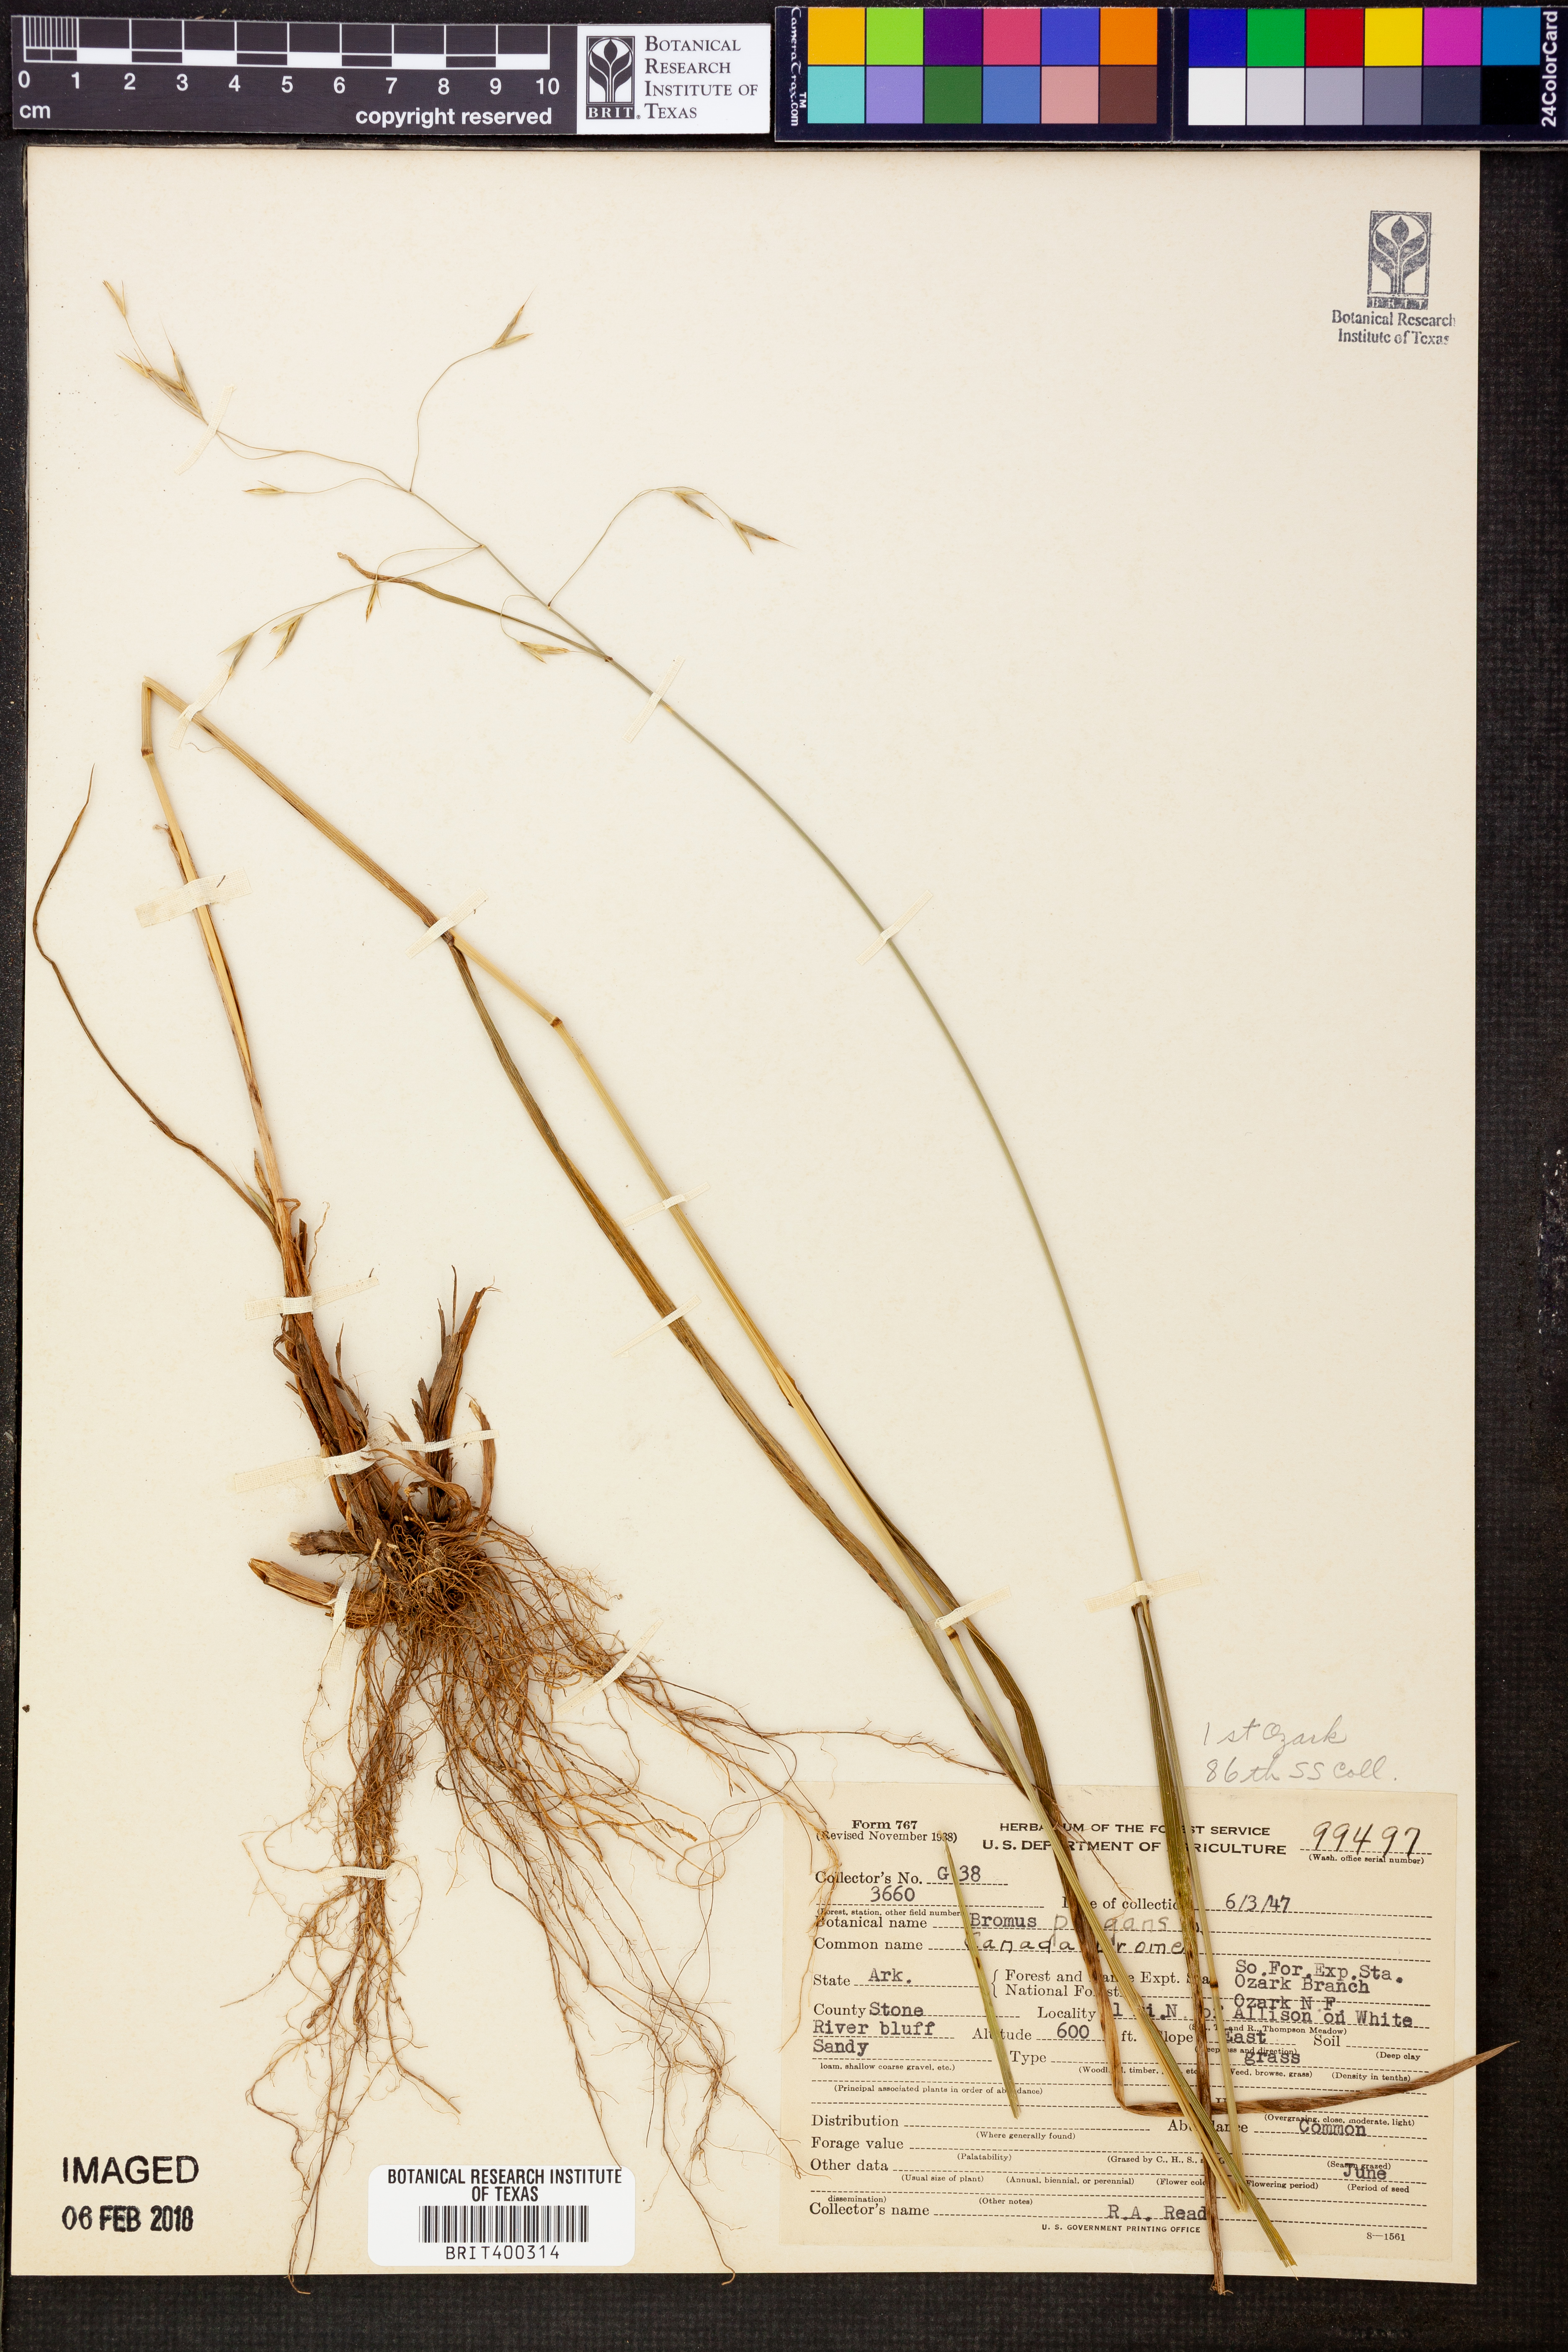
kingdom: Plantae
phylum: Tracheophyta
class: Liliopsida
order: Poales
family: Poaceae
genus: Triticum
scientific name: Triticum Bromus purgans
